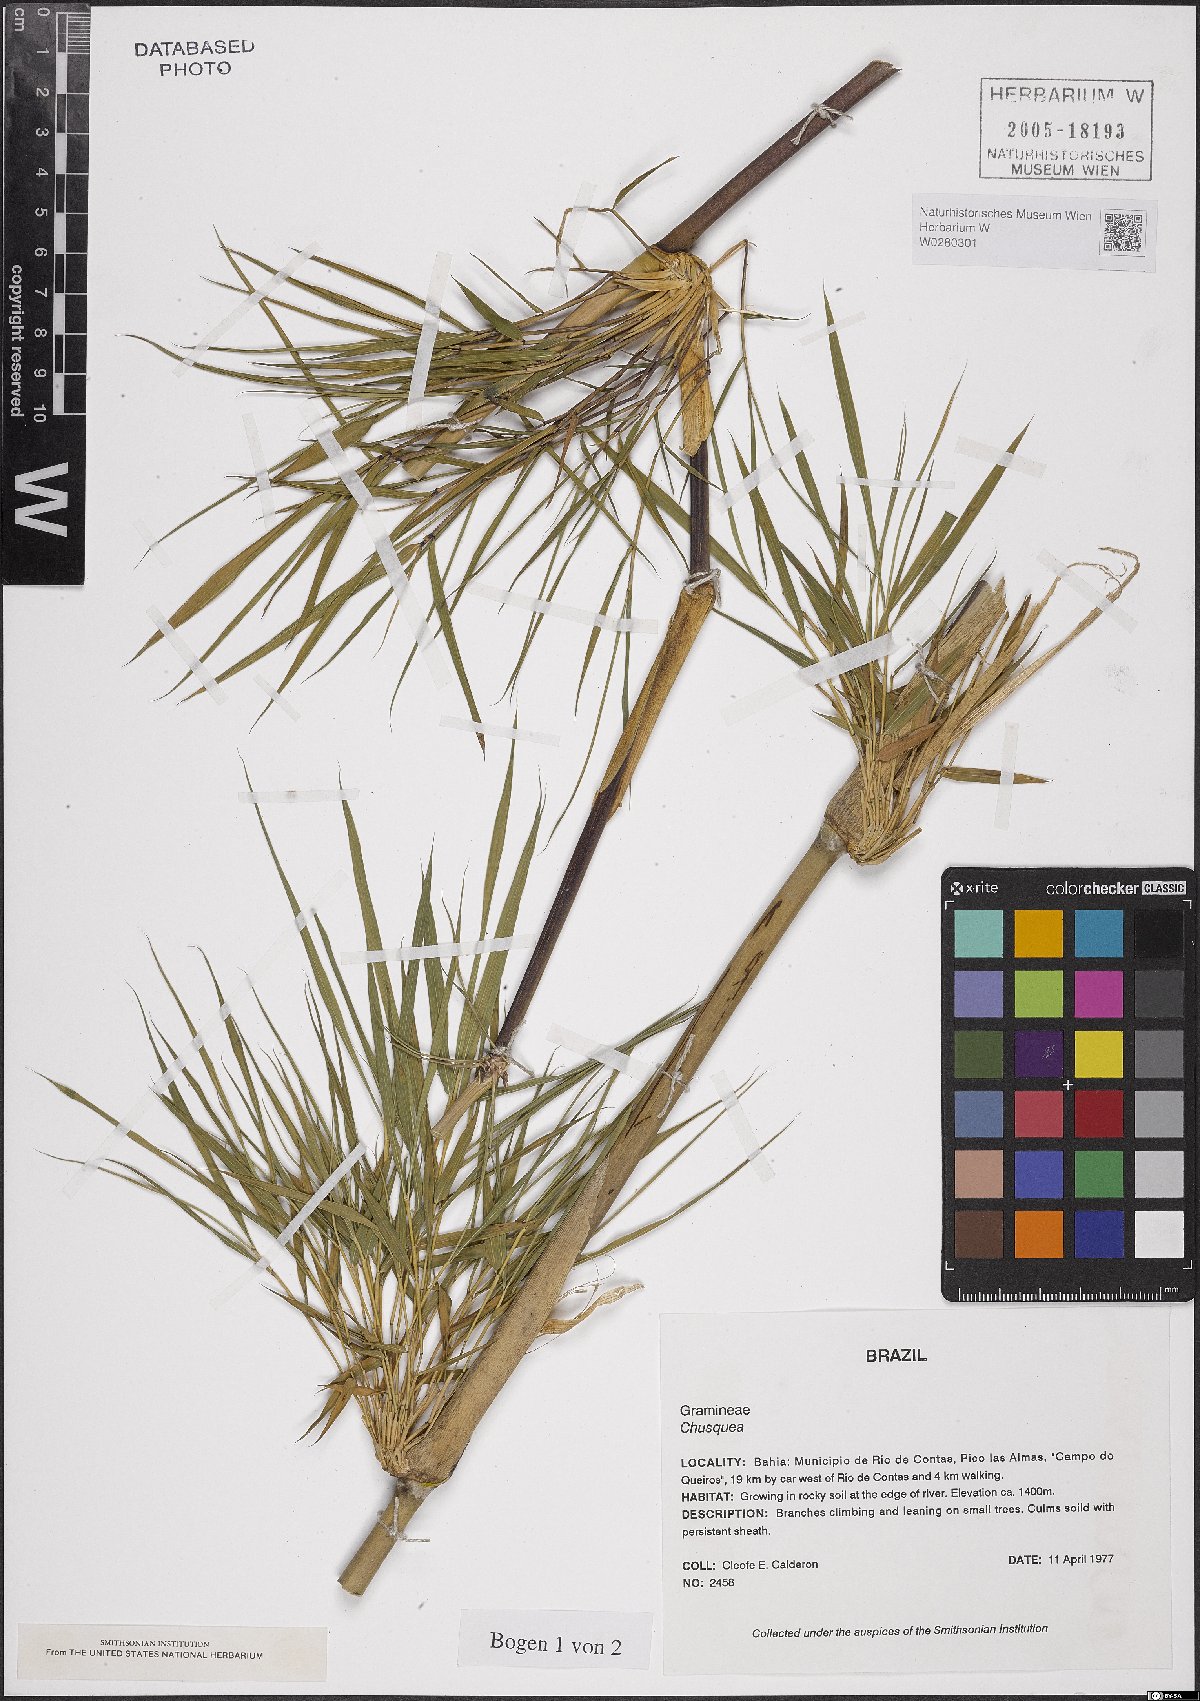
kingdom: Plantae
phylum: Tracheophyta
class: Liliopsida
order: Poales
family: Poaceae
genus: Chusquea
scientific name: Chusquea
